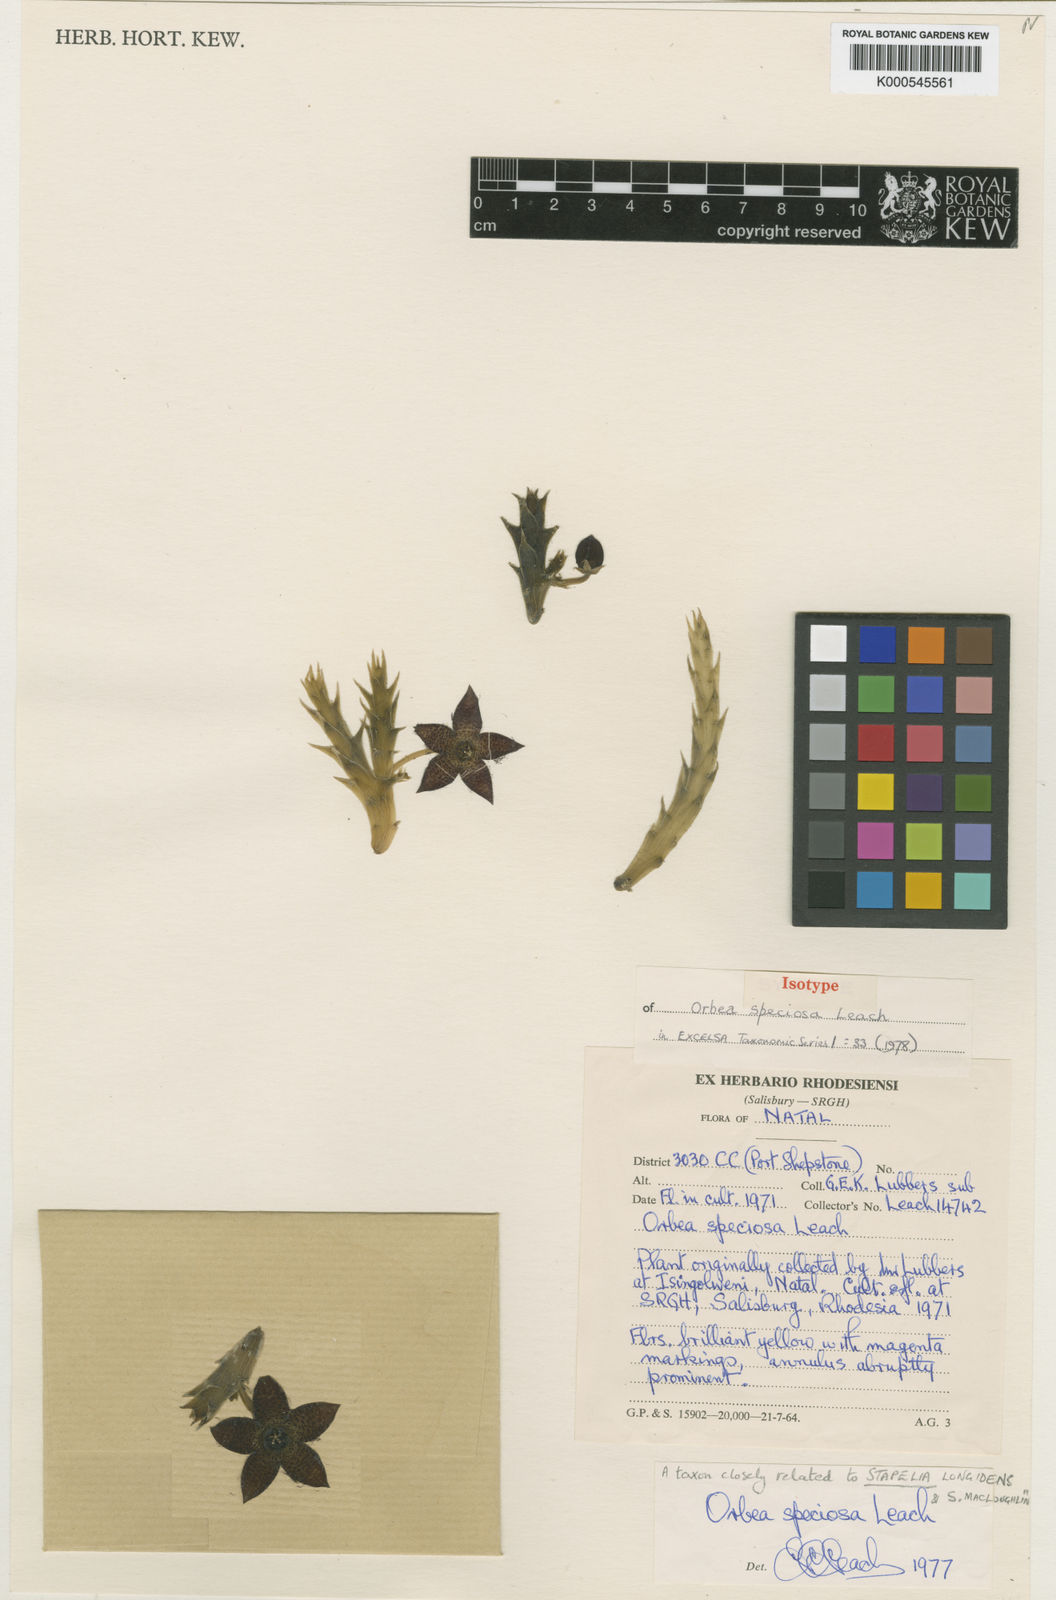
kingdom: Plantae
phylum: Tracheophyta
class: Magnoliopsida
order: Gentianales
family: Apocynaceae
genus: Orbea
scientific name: Orbea
